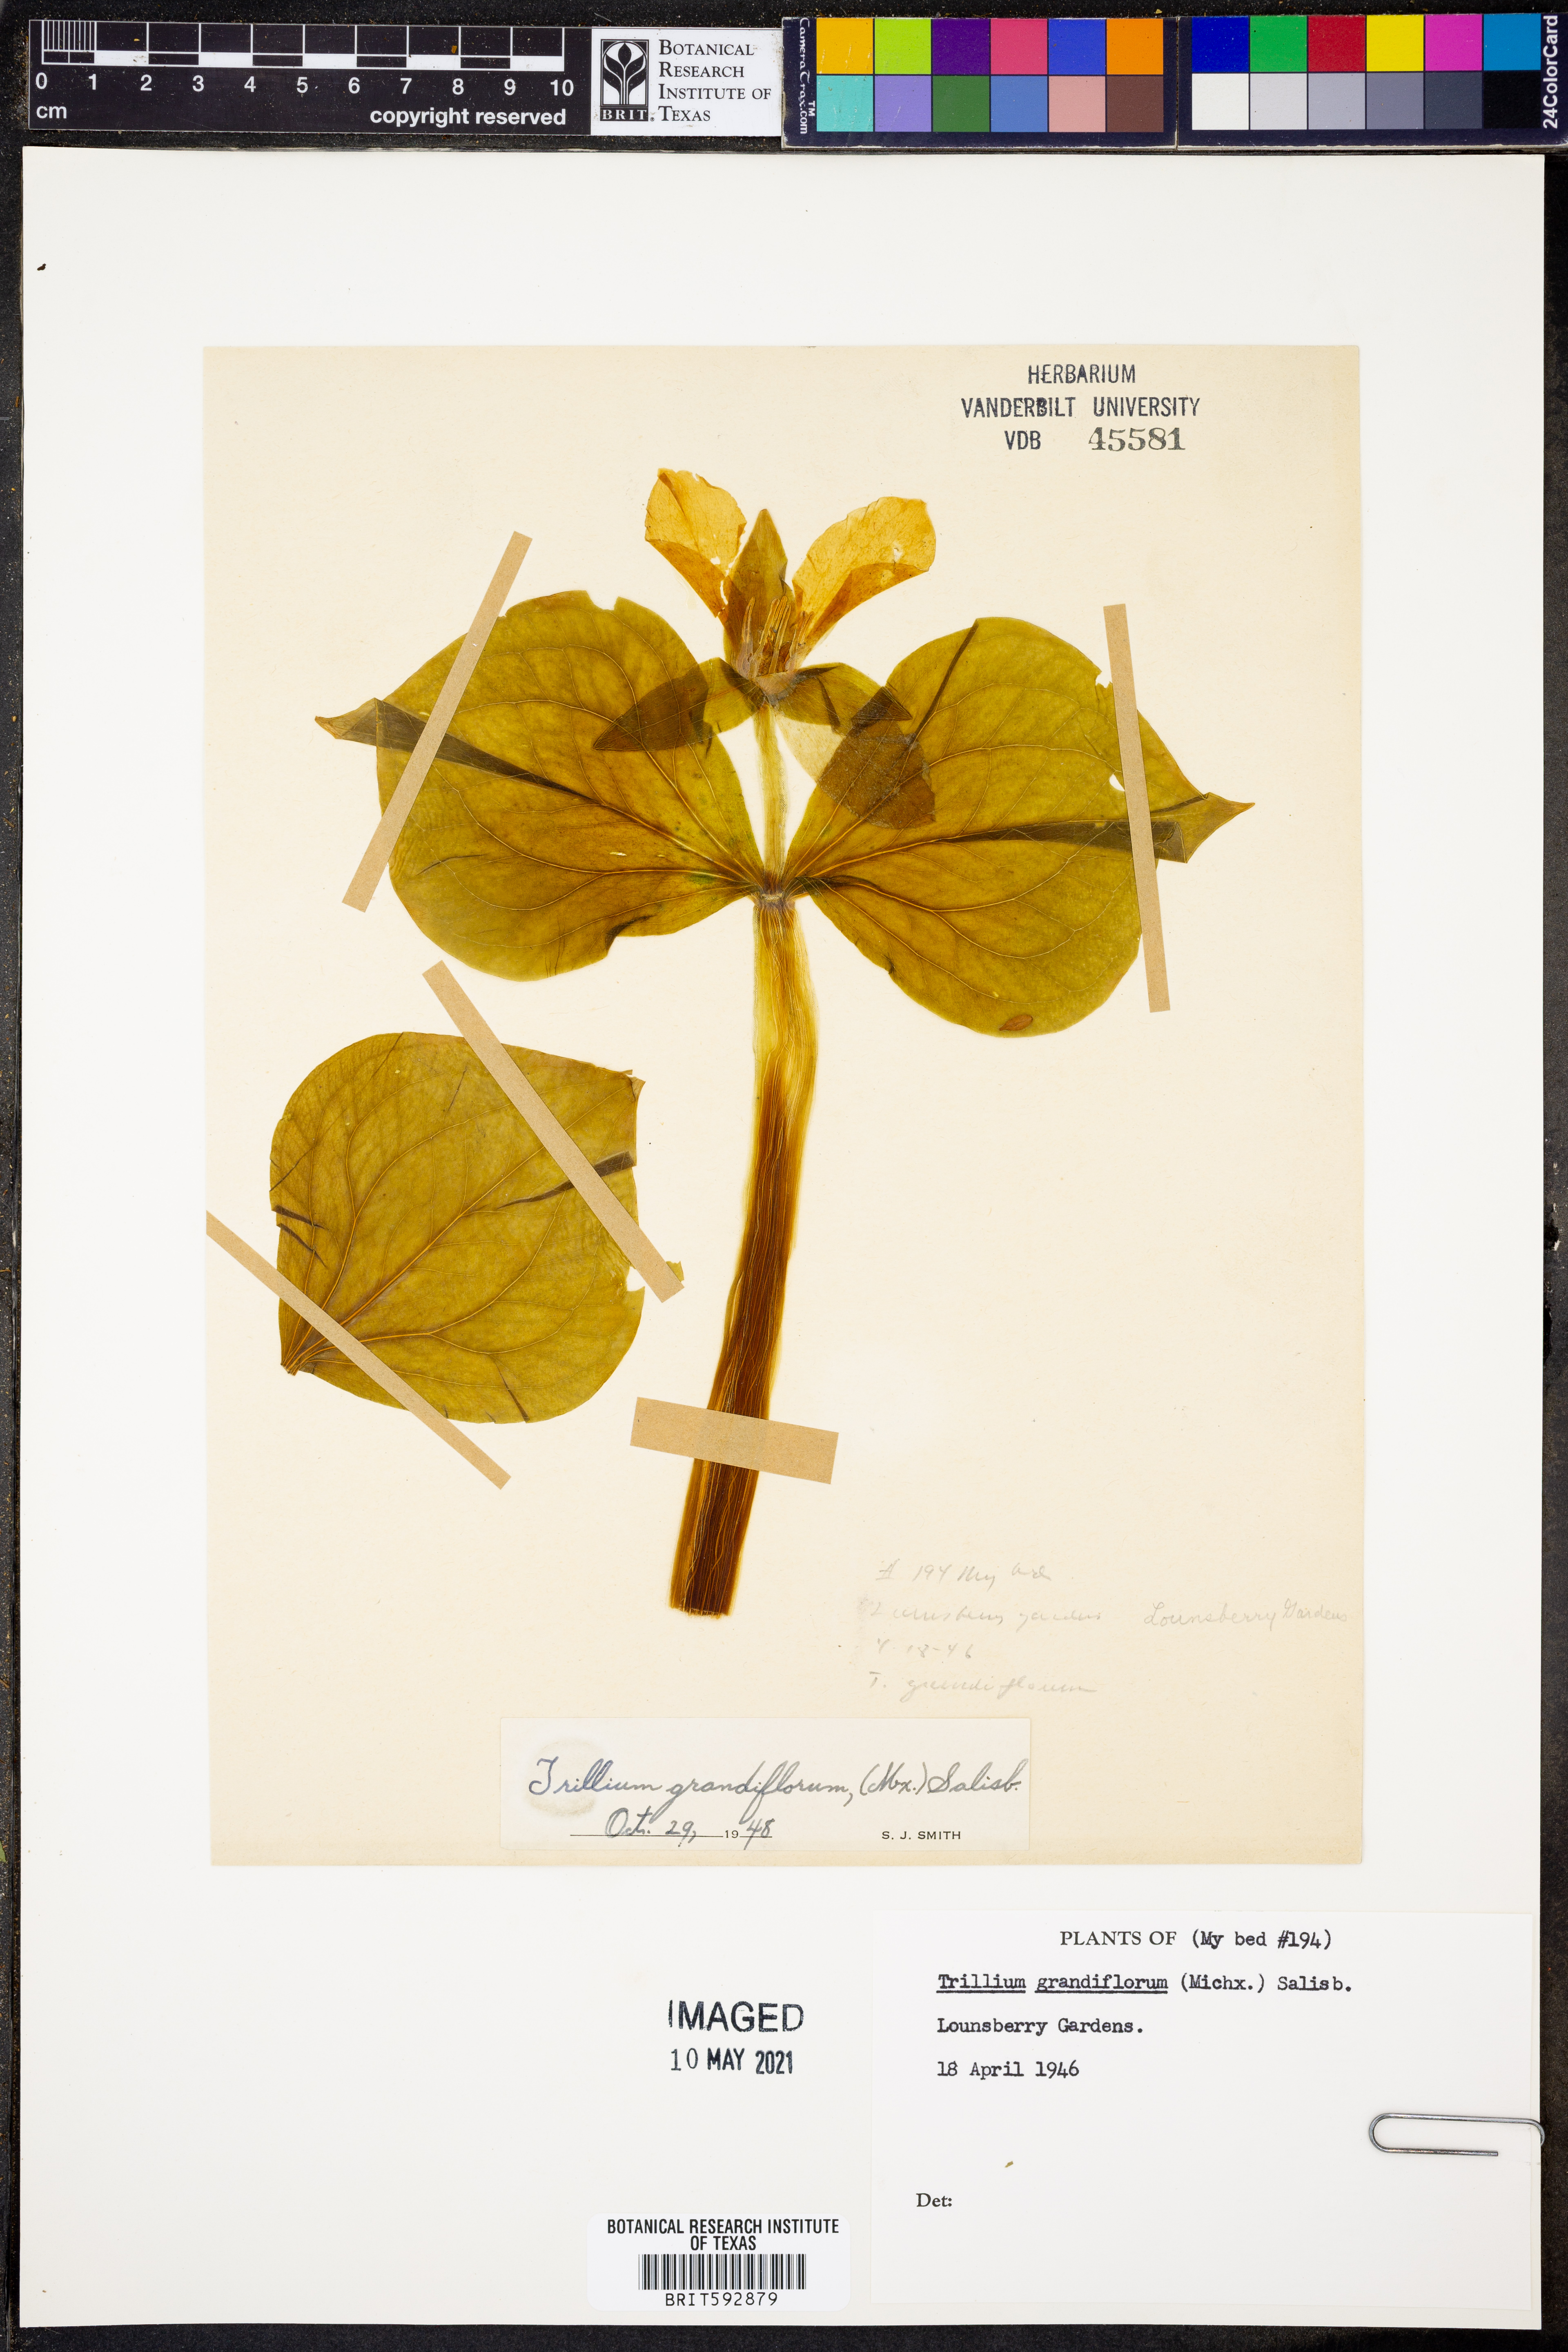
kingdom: Plantae
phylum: Tracheophyta
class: Liliopsida
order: Liliales
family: Melanthiaceae
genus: Trillium
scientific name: Trillium grandiflorum
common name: Great white trillium
